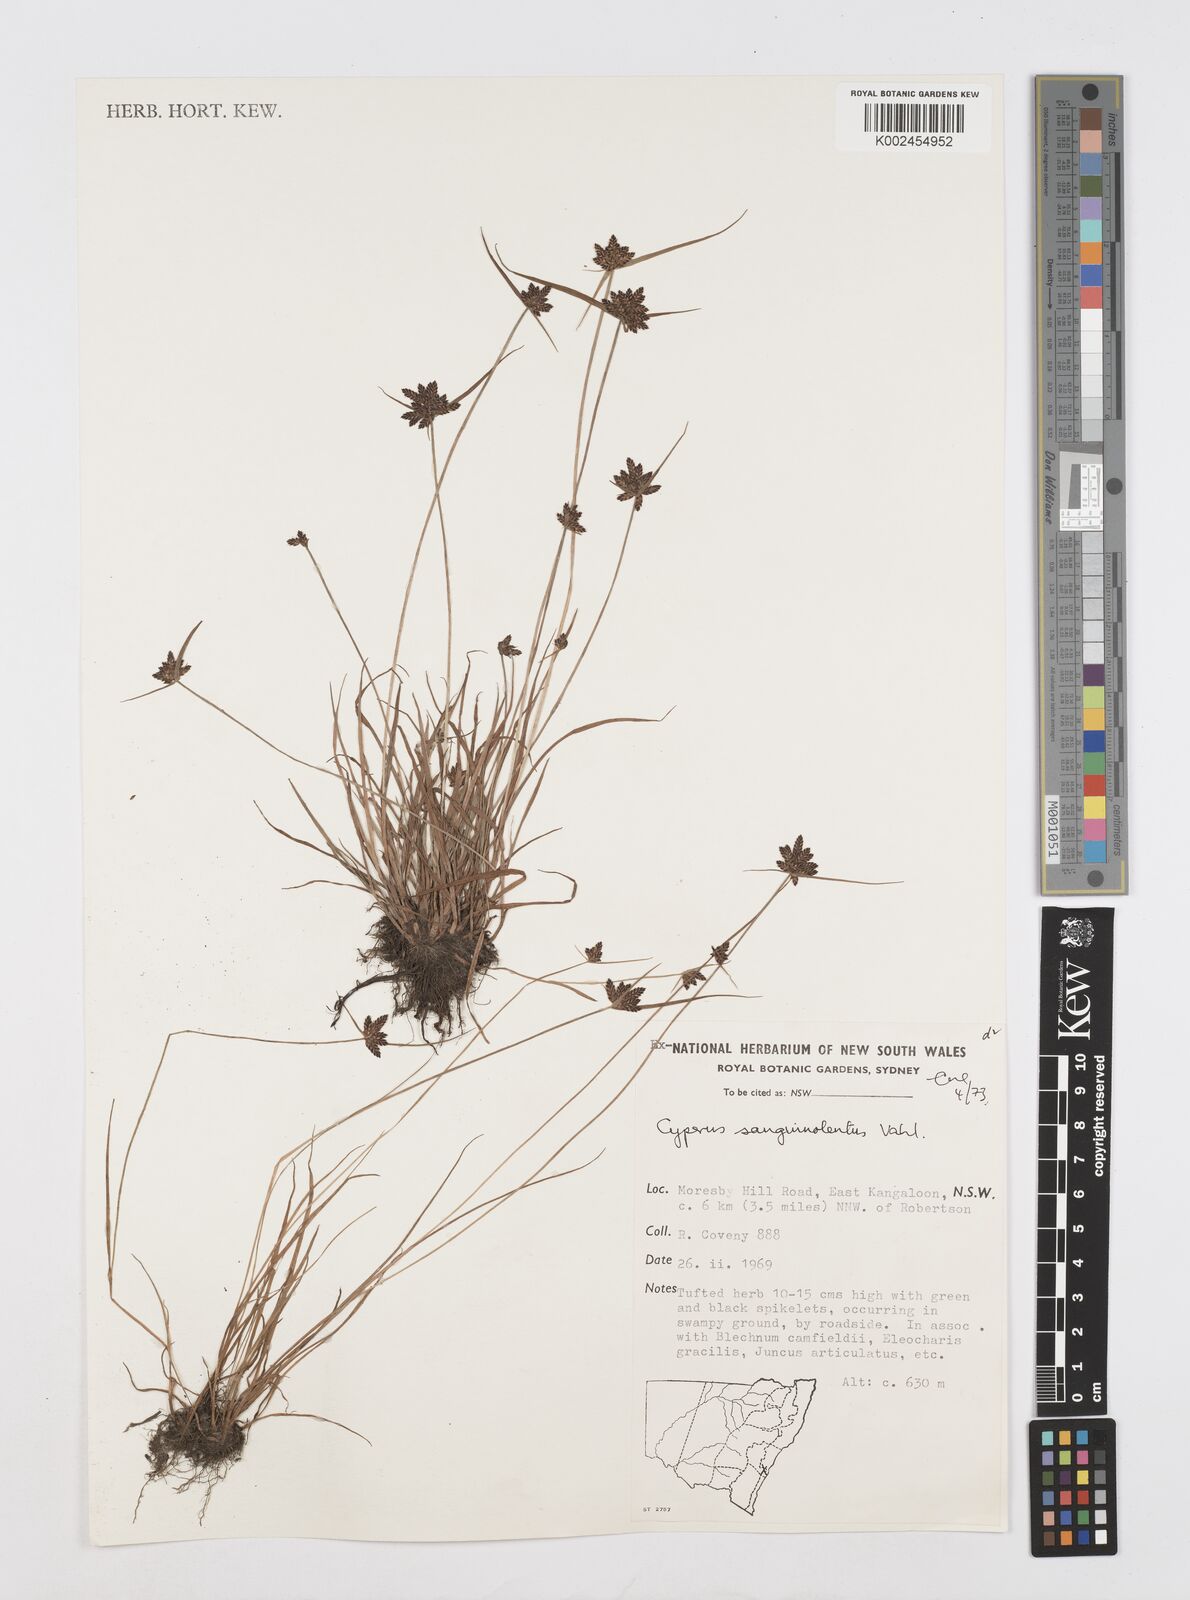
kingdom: Plantae
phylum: Tracheophyta
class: Liliopsida
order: Poales
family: Cyperaceae
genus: Cyperus
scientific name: Cyperus sanguinolentus
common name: Purpleglume flatsedge
